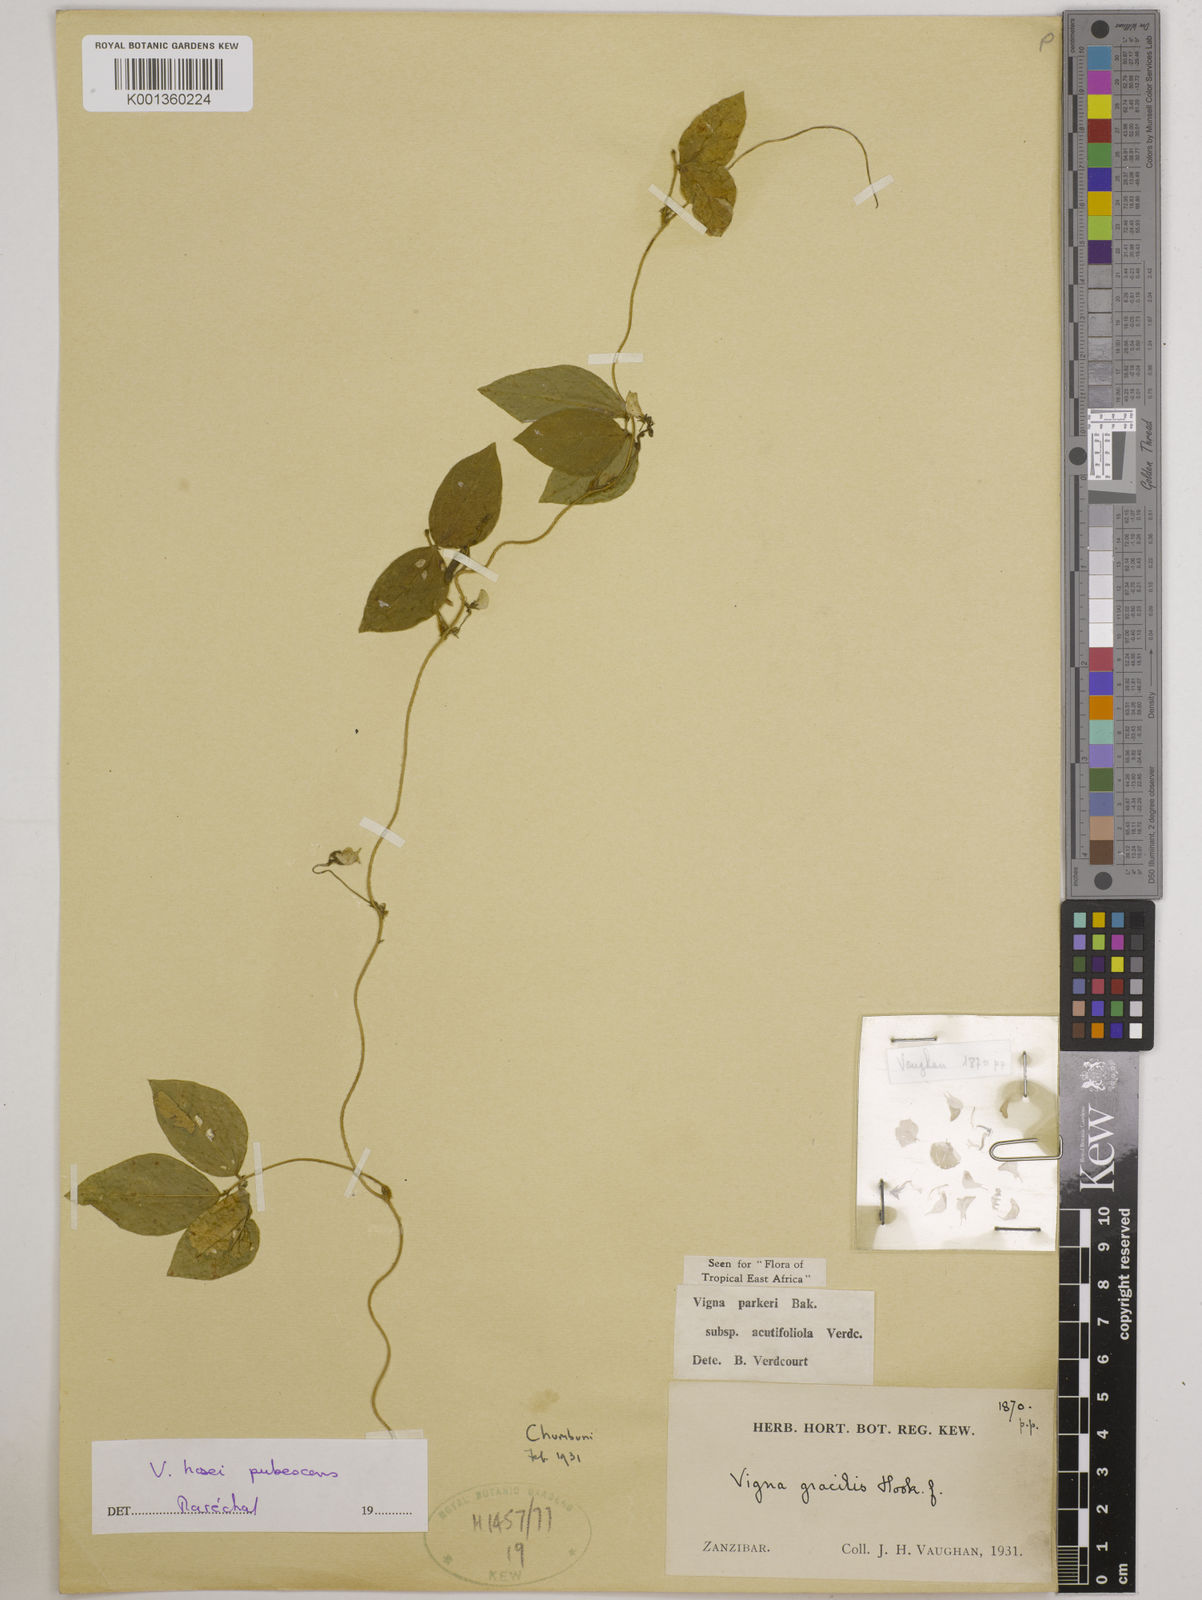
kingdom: Plantae
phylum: Tracheophyta
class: Magnoliopsida
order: Fabales
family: Fabaceae
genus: Vigna
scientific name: Vigna hosei
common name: Sarawak-bean
